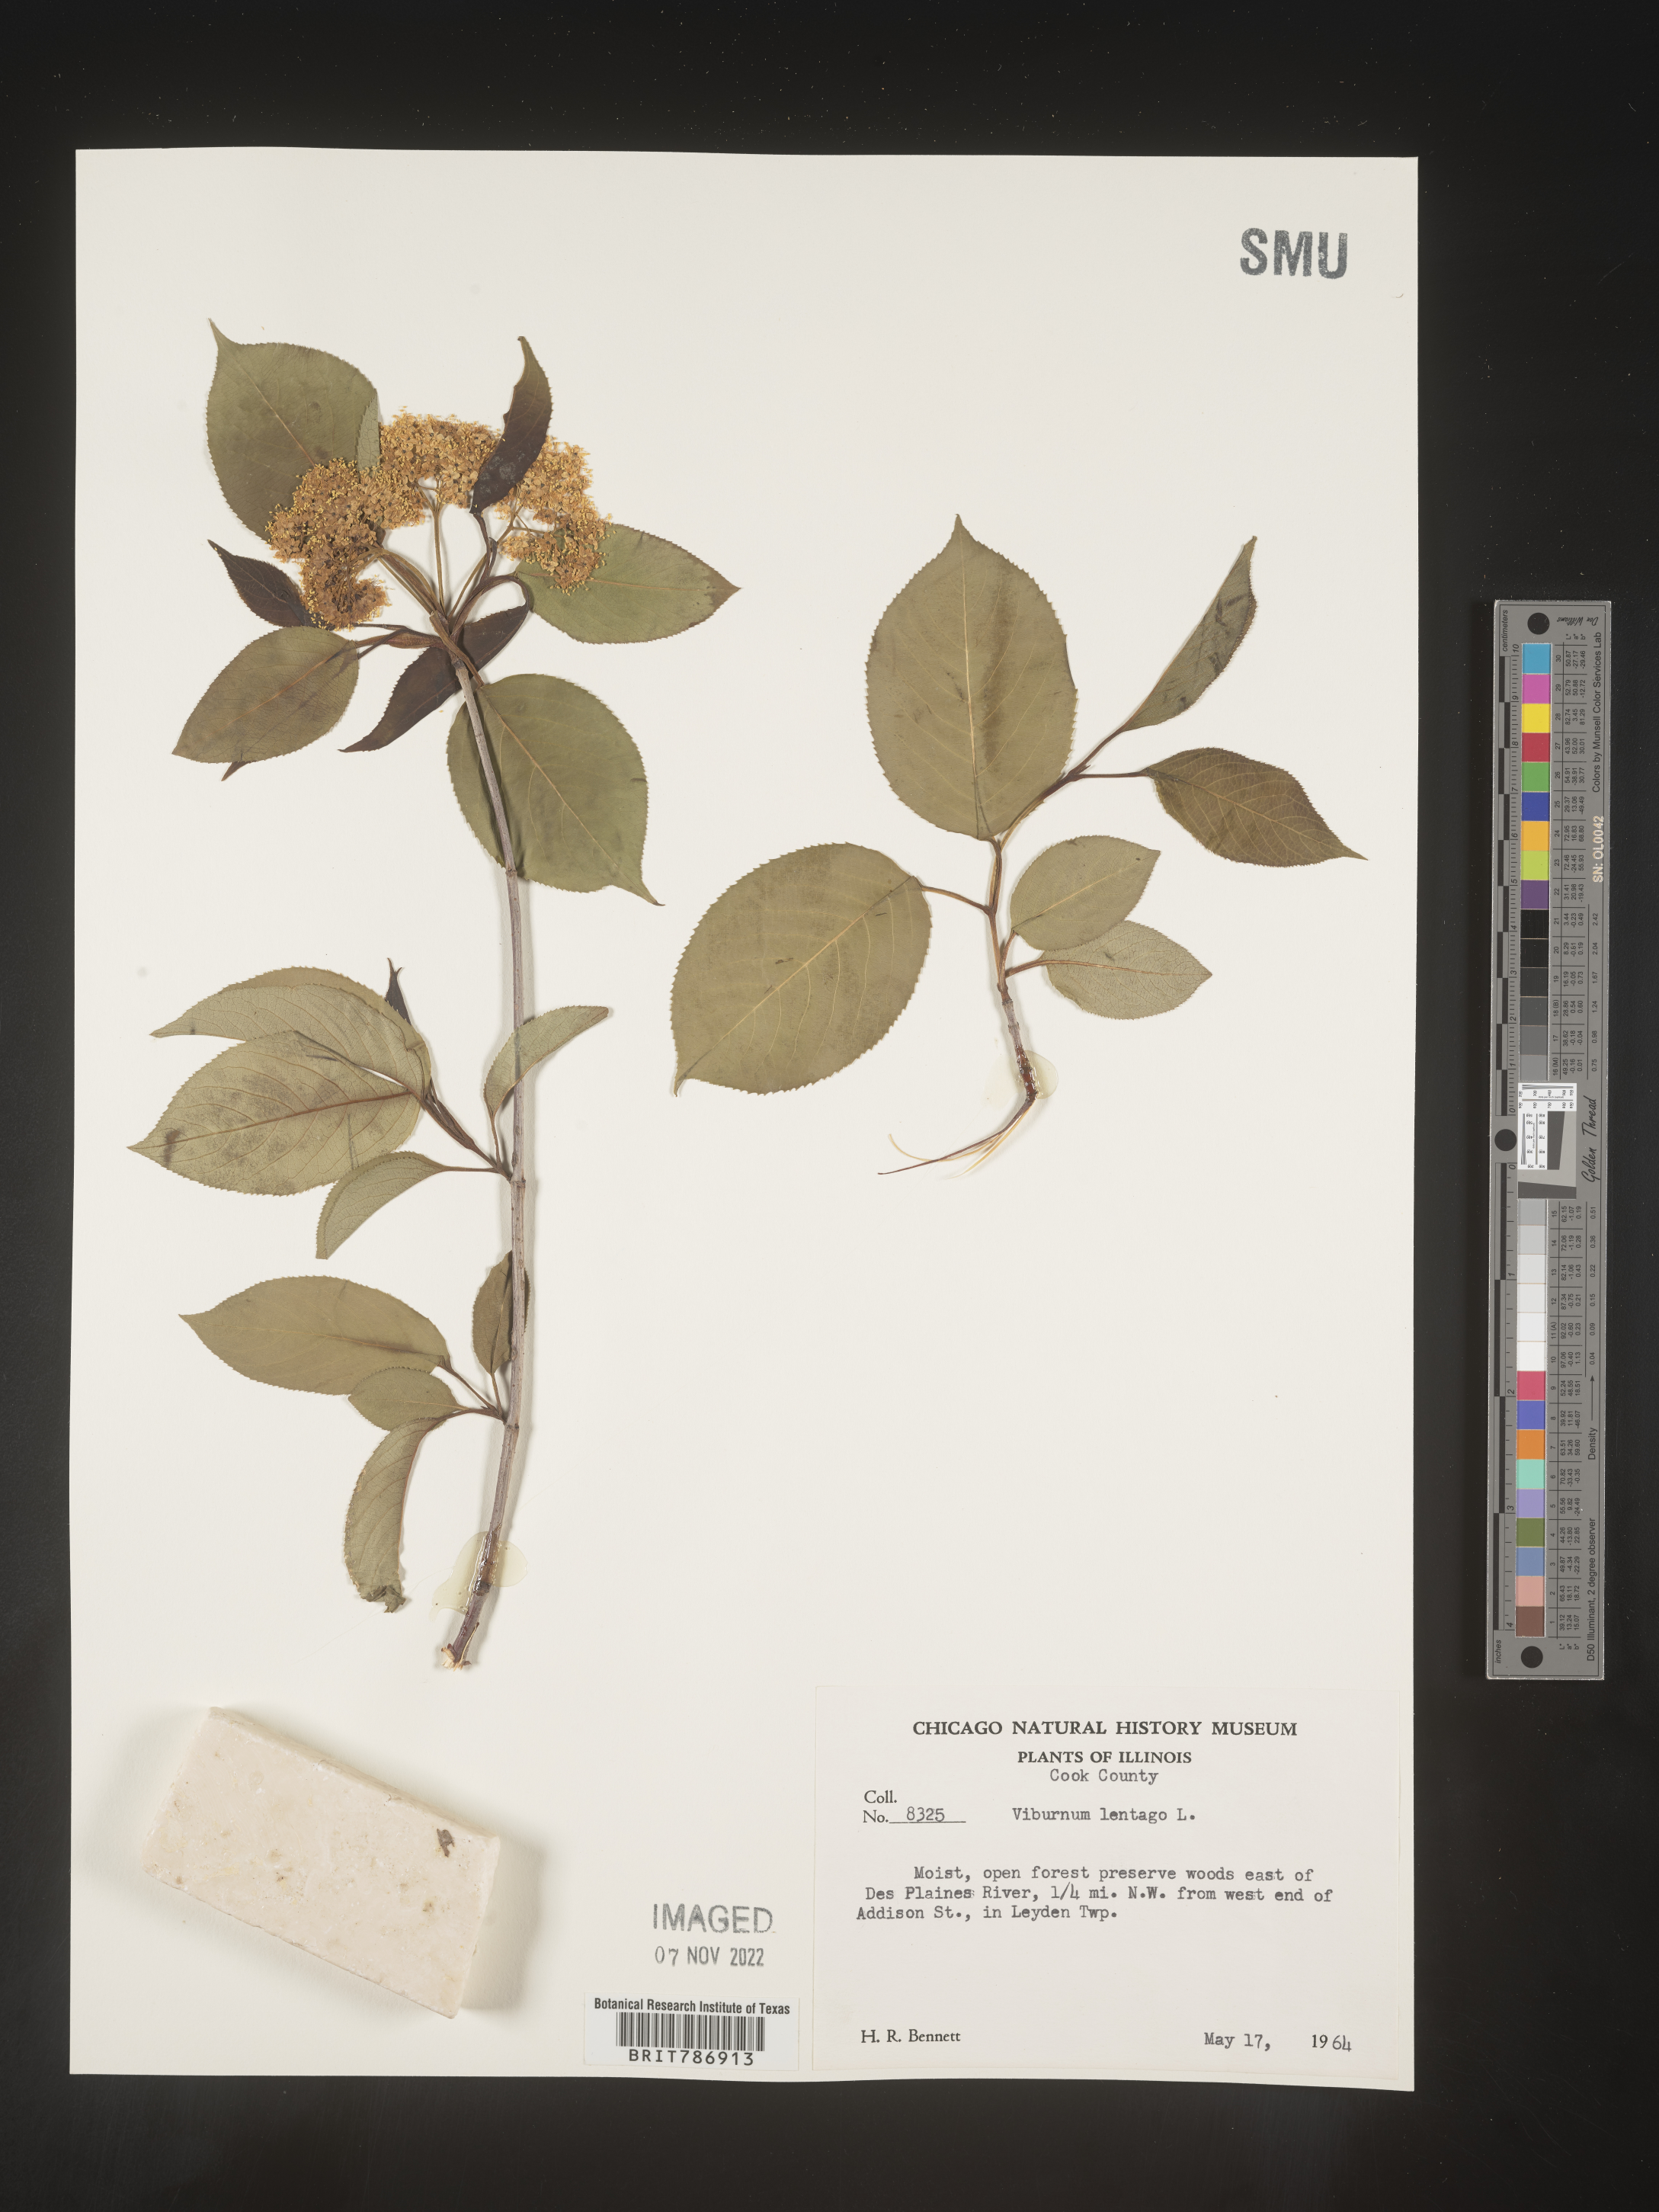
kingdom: Plantae
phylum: Tracheophyta
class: Magnoliopsida
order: Dipsacales
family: Viburnaceae
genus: Viburnum
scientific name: Viburnum lentago
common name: Black haw
